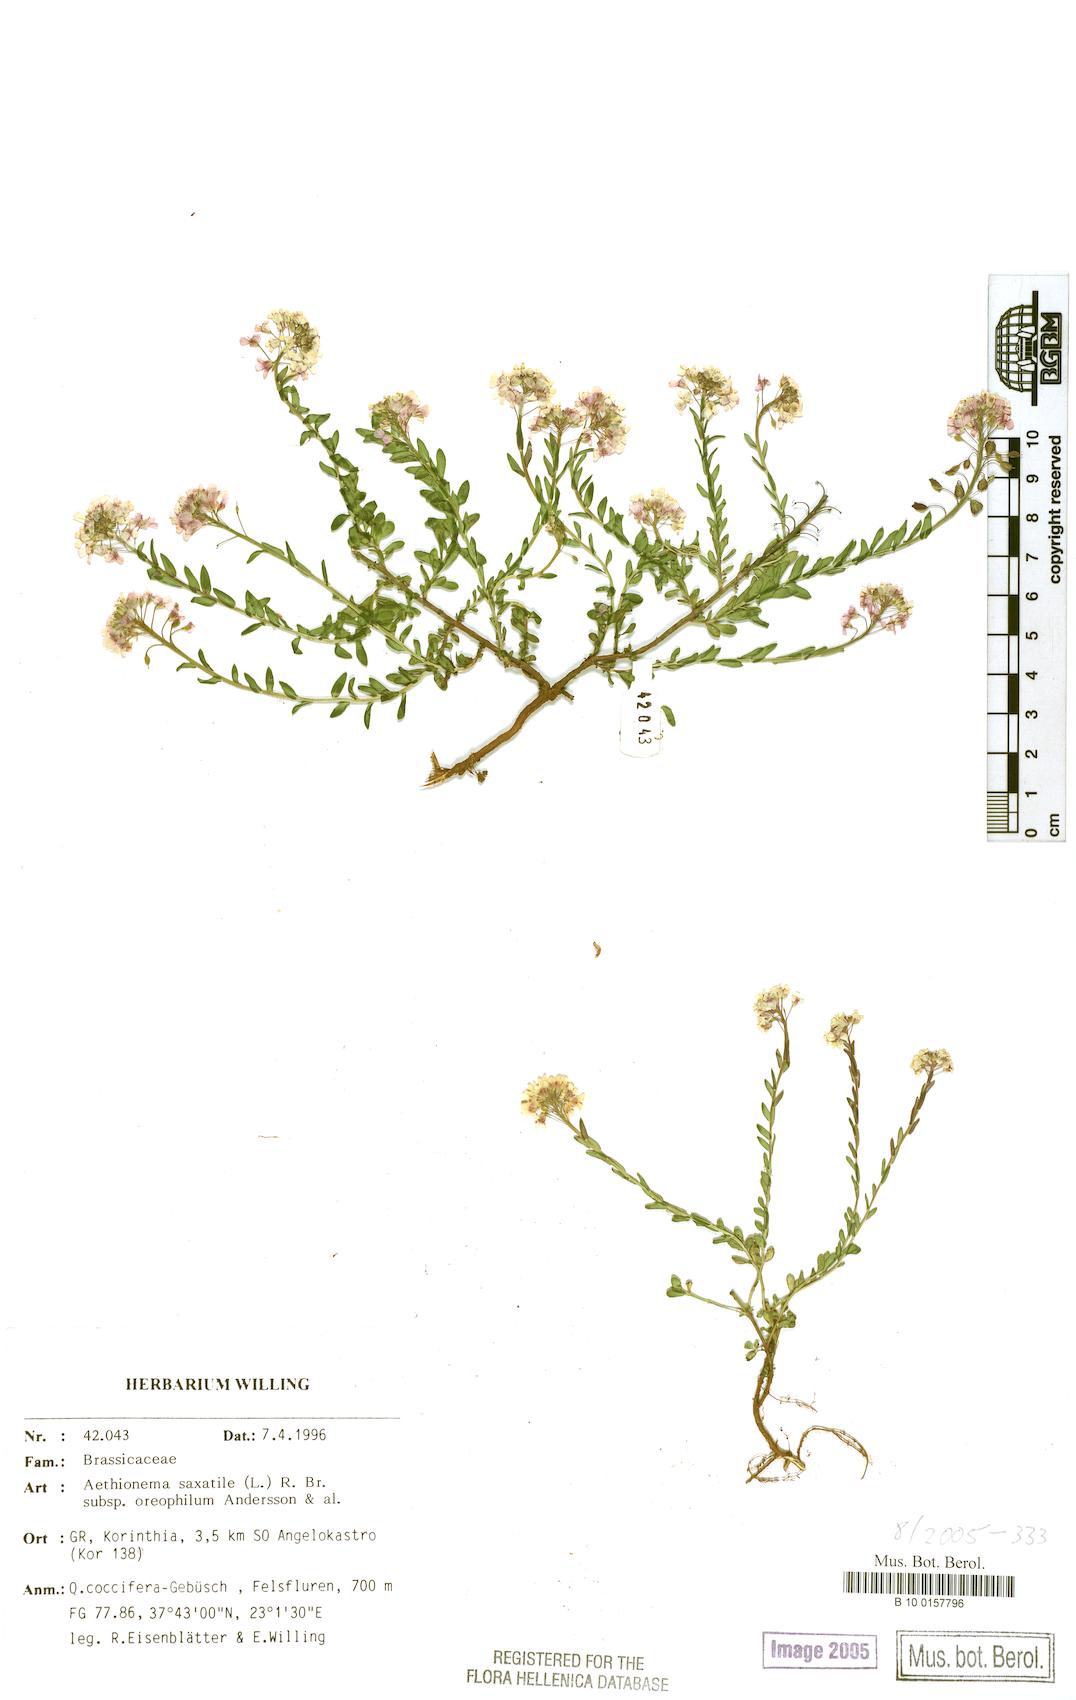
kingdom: Plantae
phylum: Tracheophyta
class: Magnoliopsida
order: Brassicales
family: Brassicaceae
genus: Aethionema
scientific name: Aethionema saxatile
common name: Burnt candytuft
